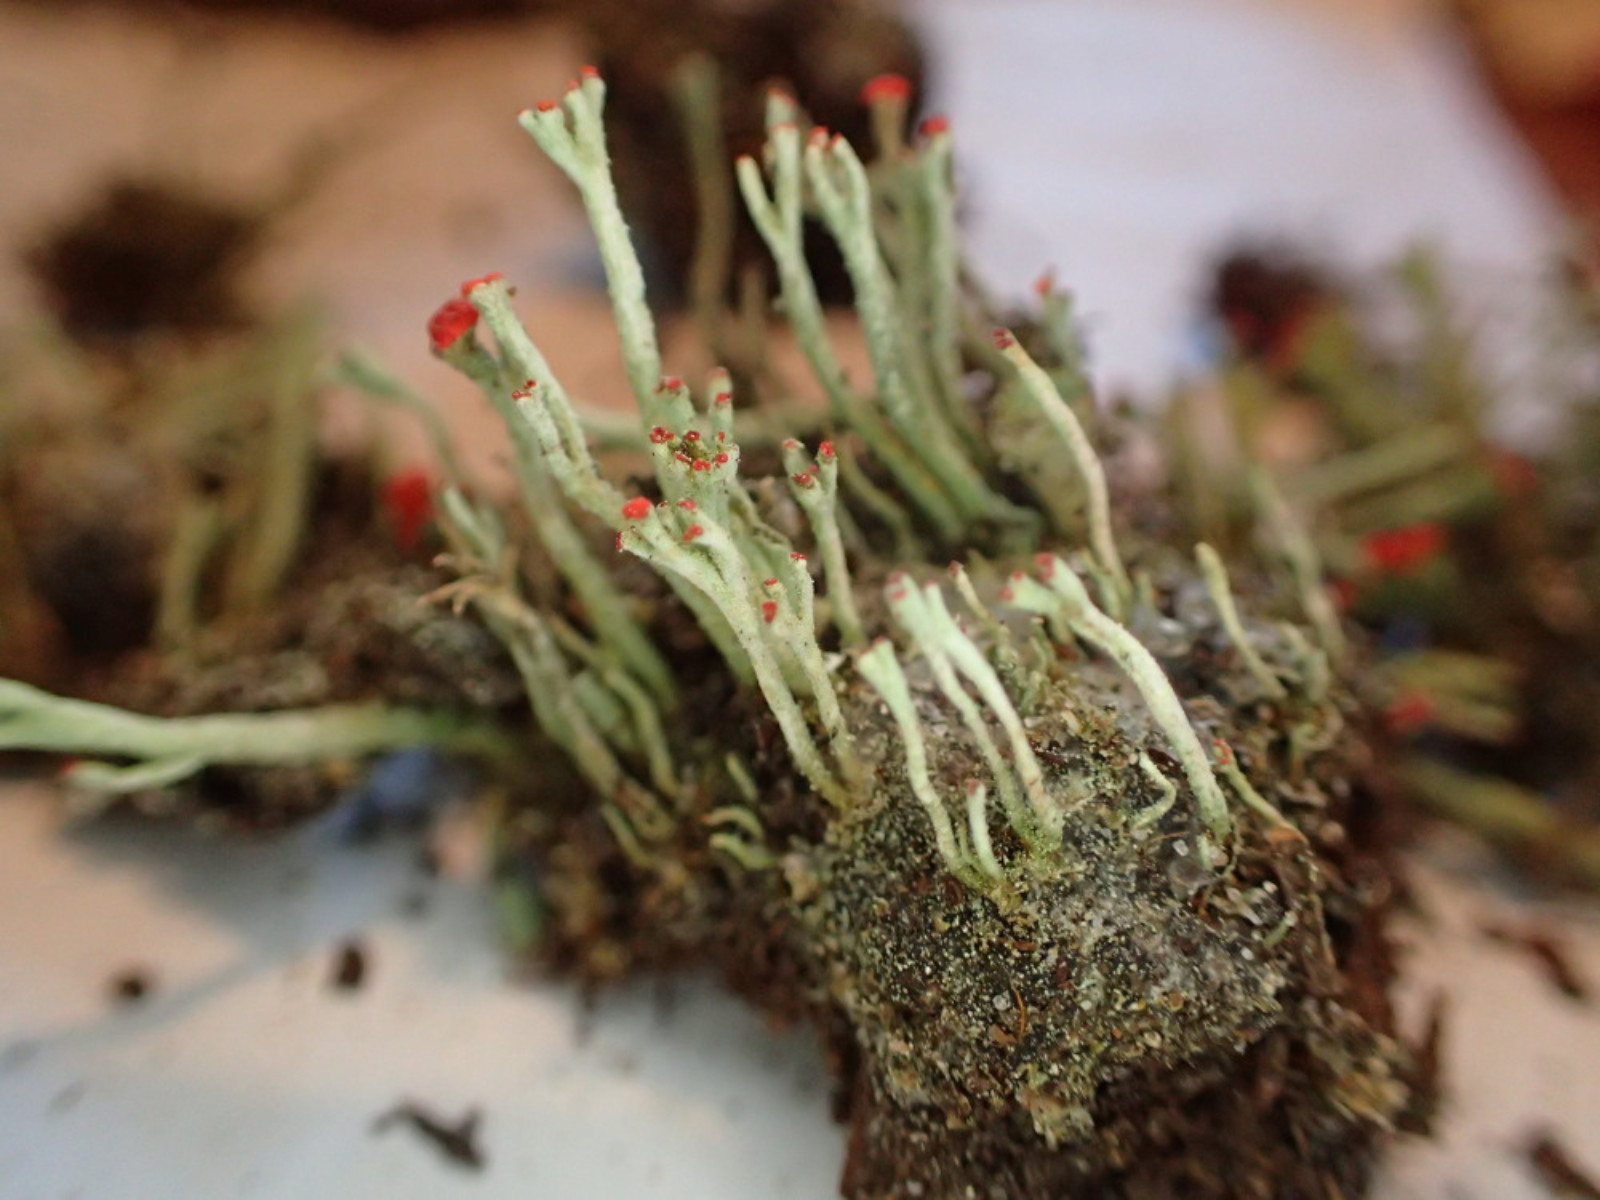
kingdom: Fungi
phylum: Ascomycota
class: Lecanoromycetes
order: Lecanorales
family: Cladoniaceae
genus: Cladonia
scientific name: Cladonia macilenta
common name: indsvunden bægerlav
